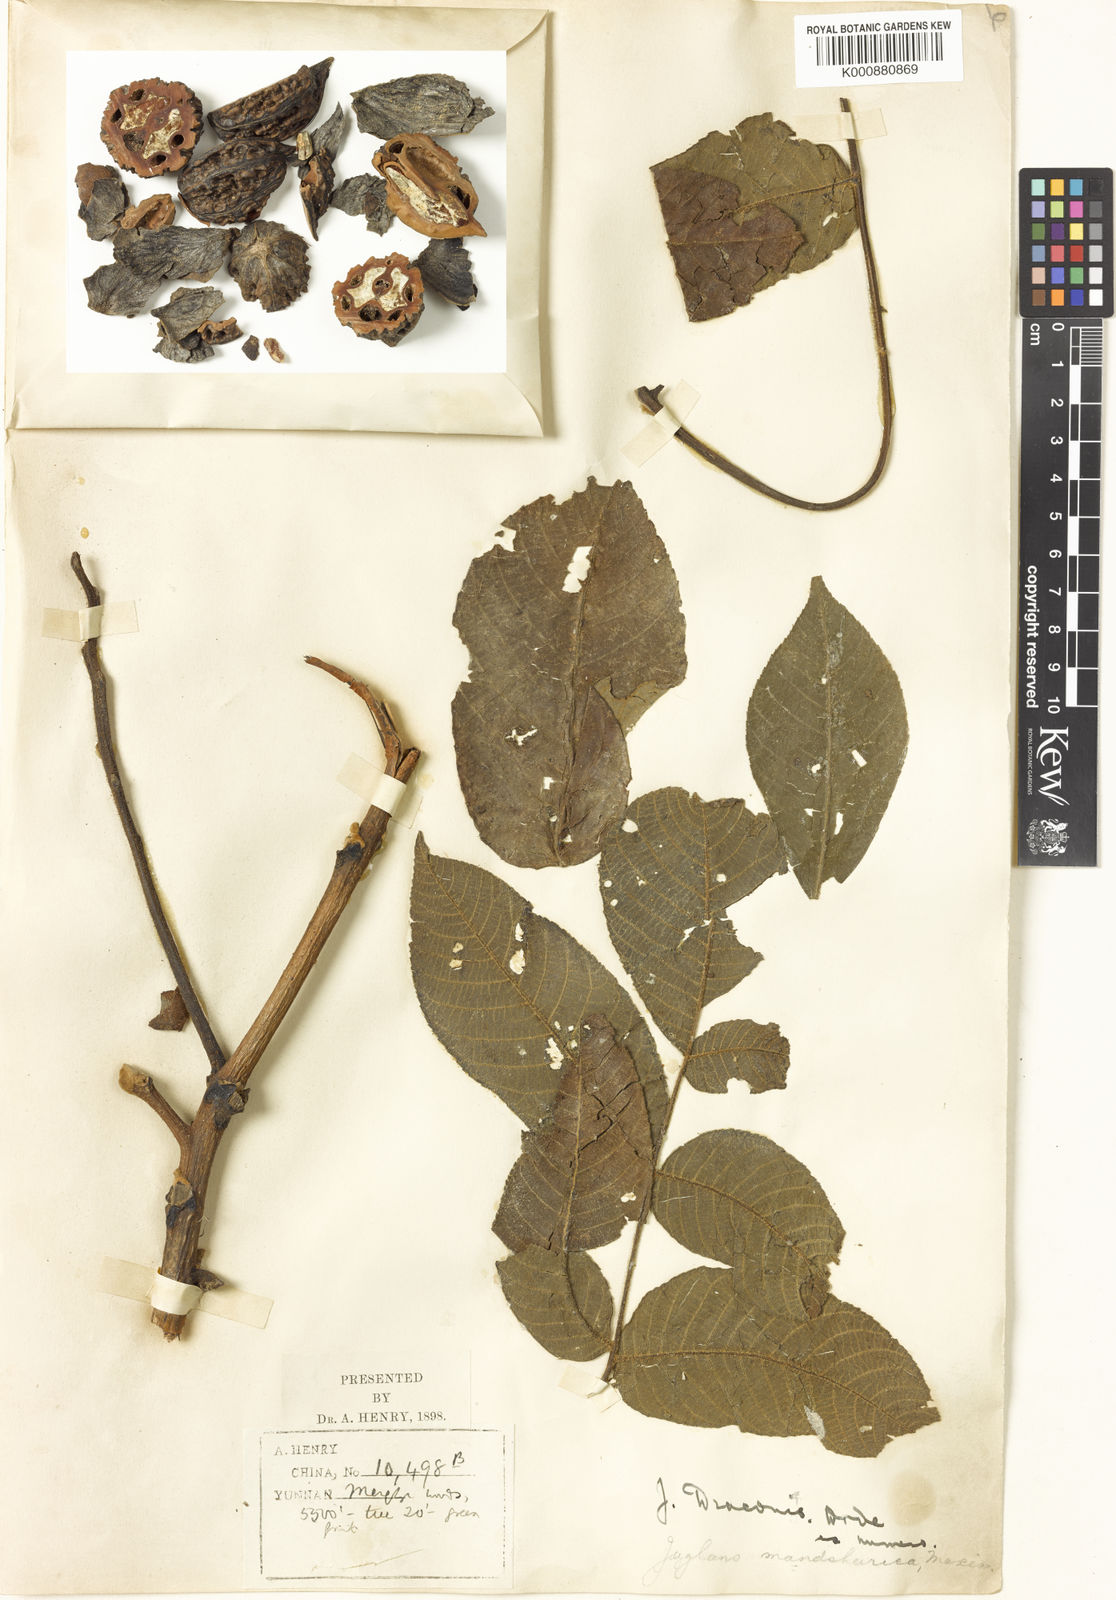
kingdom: Plantae
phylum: Tracheophyta
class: Magnoliopsida
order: Fagales
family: Juglandaceae
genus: Juglans
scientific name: Juglans mandshurica
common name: Manchurian walnut
